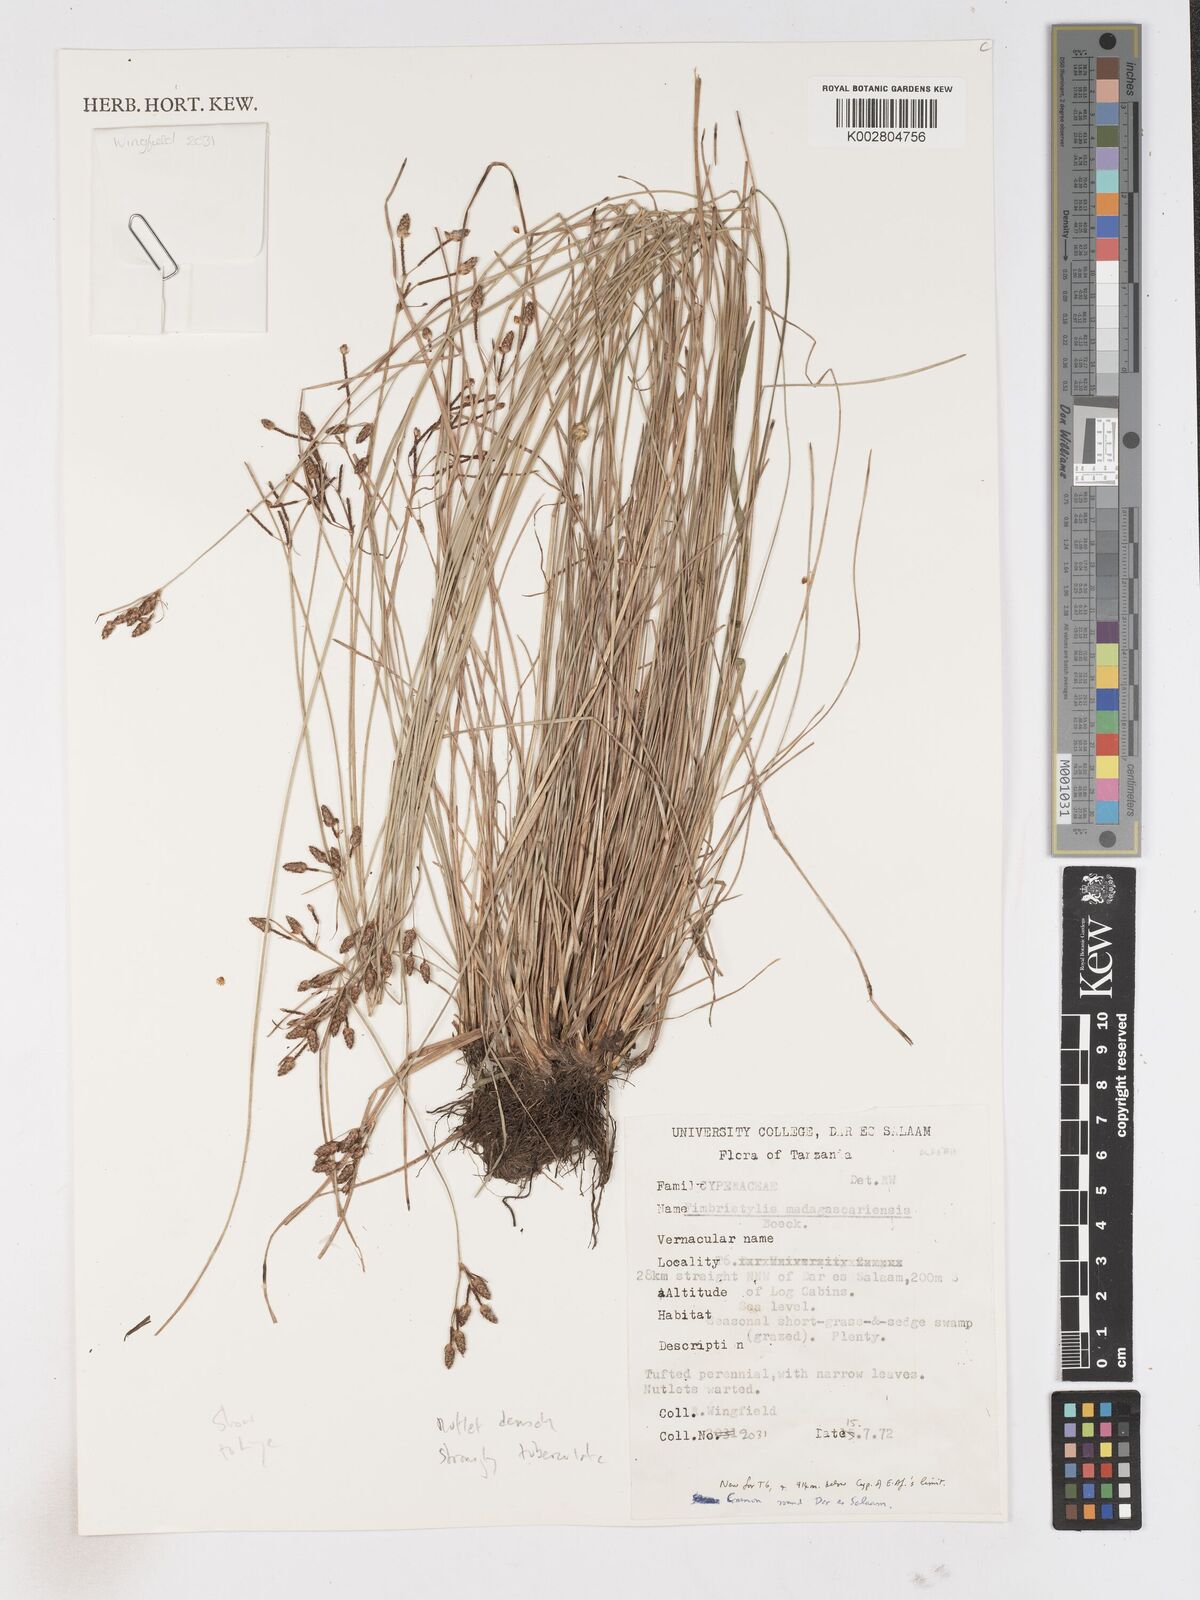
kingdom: Plantae
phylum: Tracheophyta
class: Liliopsida
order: Poales
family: Cyperaceae
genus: Fimbristylis
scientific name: Fimbristylis madagascariensis
